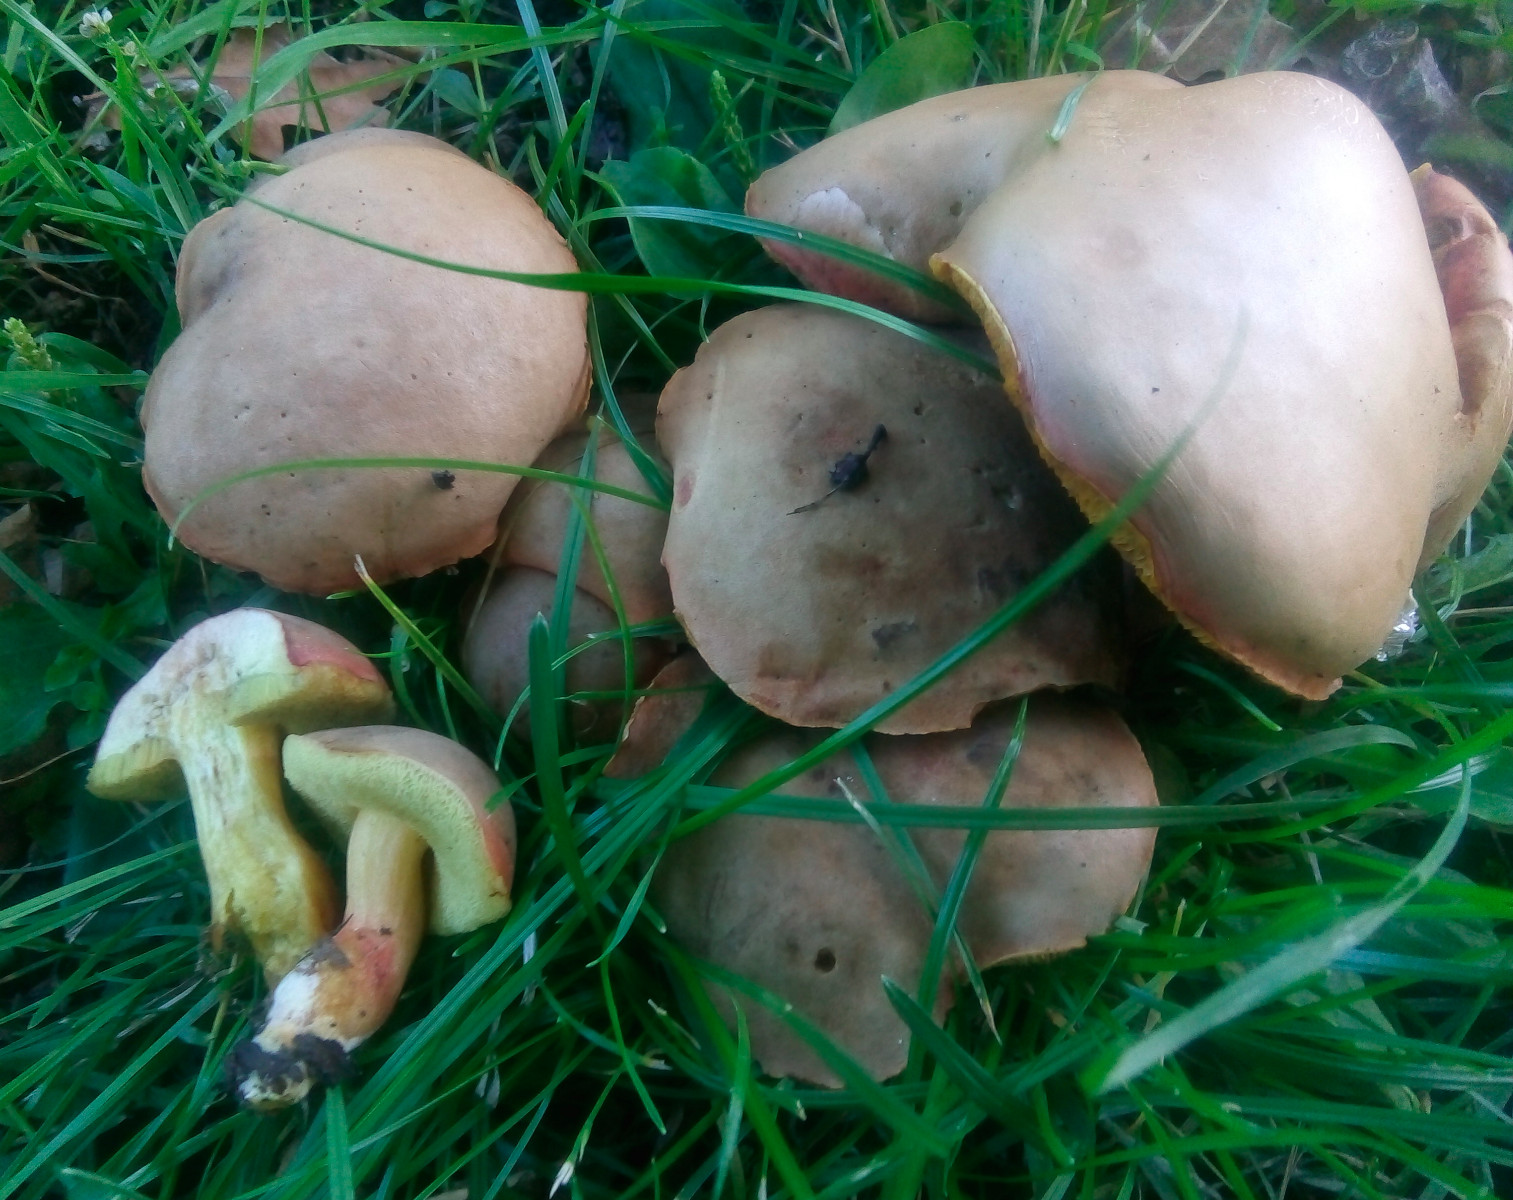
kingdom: Fungi
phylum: Basidiomycota
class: Agaricomycetes
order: Boletales
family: Boletaceae
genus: Hortiboletus
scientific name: Hortiboletus engelii
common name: fersken-rørhat
